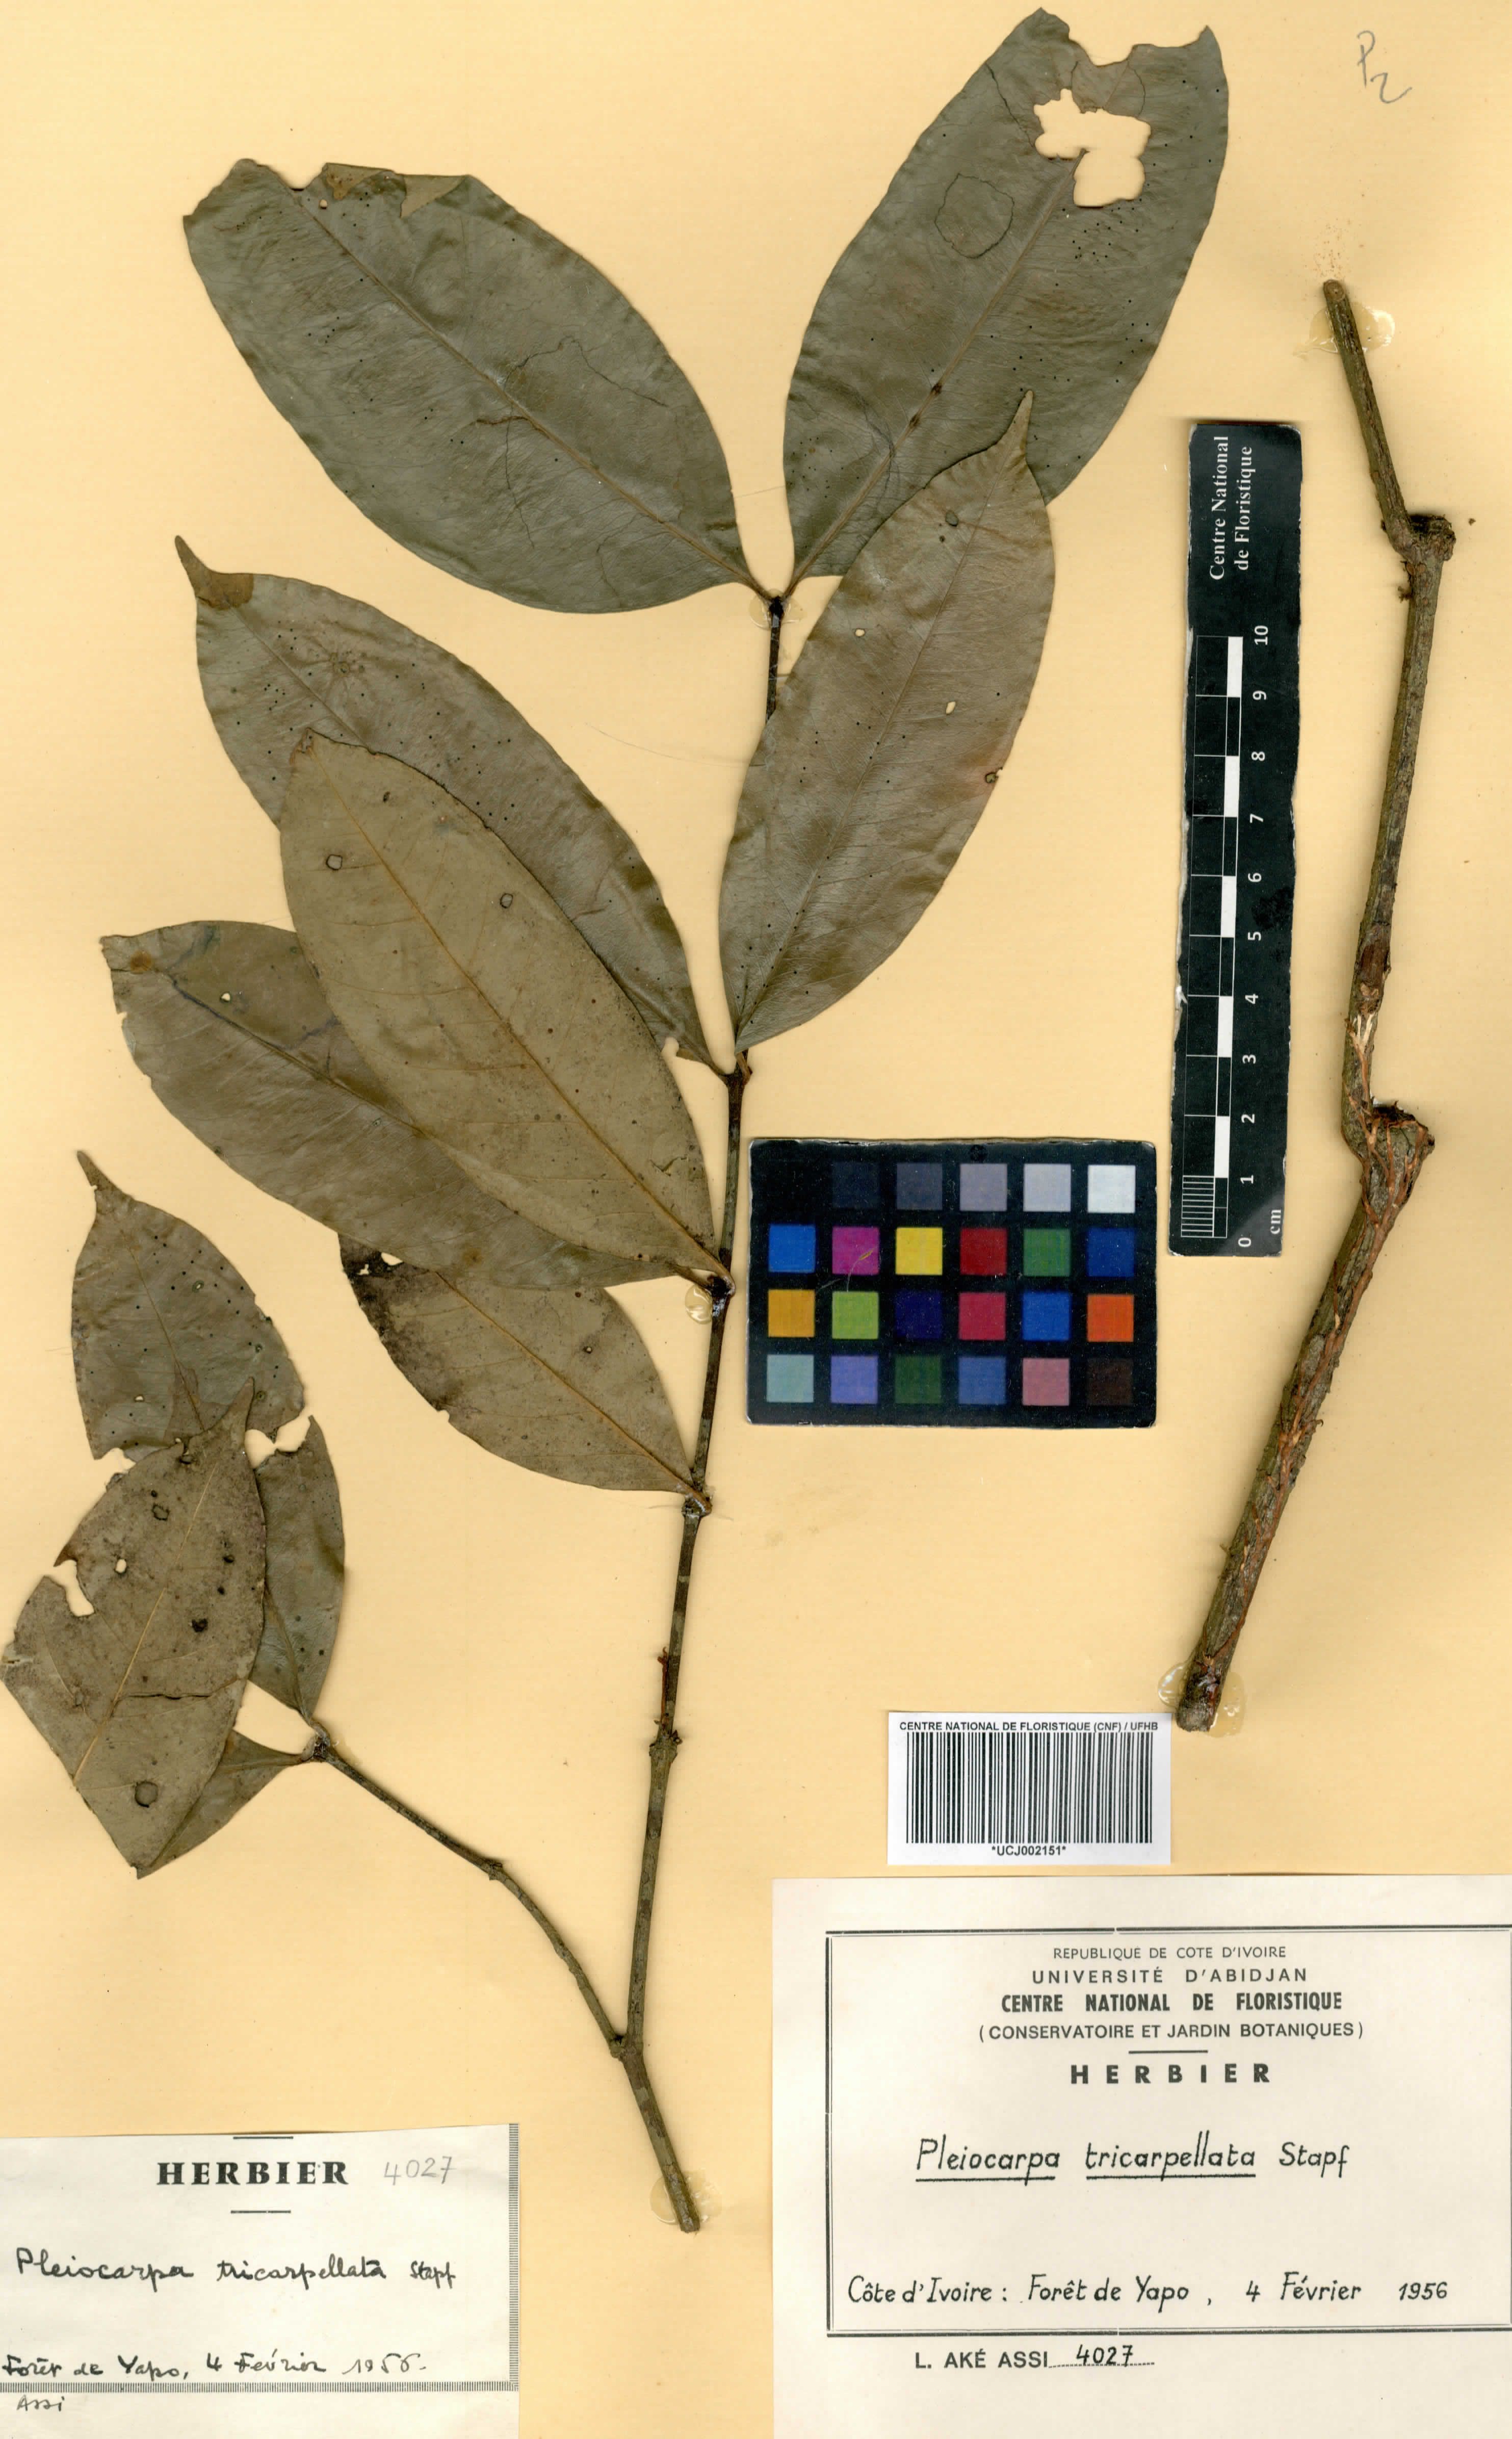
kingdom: Plantae
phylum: Tracheophyta
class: Magnoliopsida
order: Gentianales
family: Apocynaceae
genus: Pleiocarpa
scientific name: Pleiocarpa mutica
